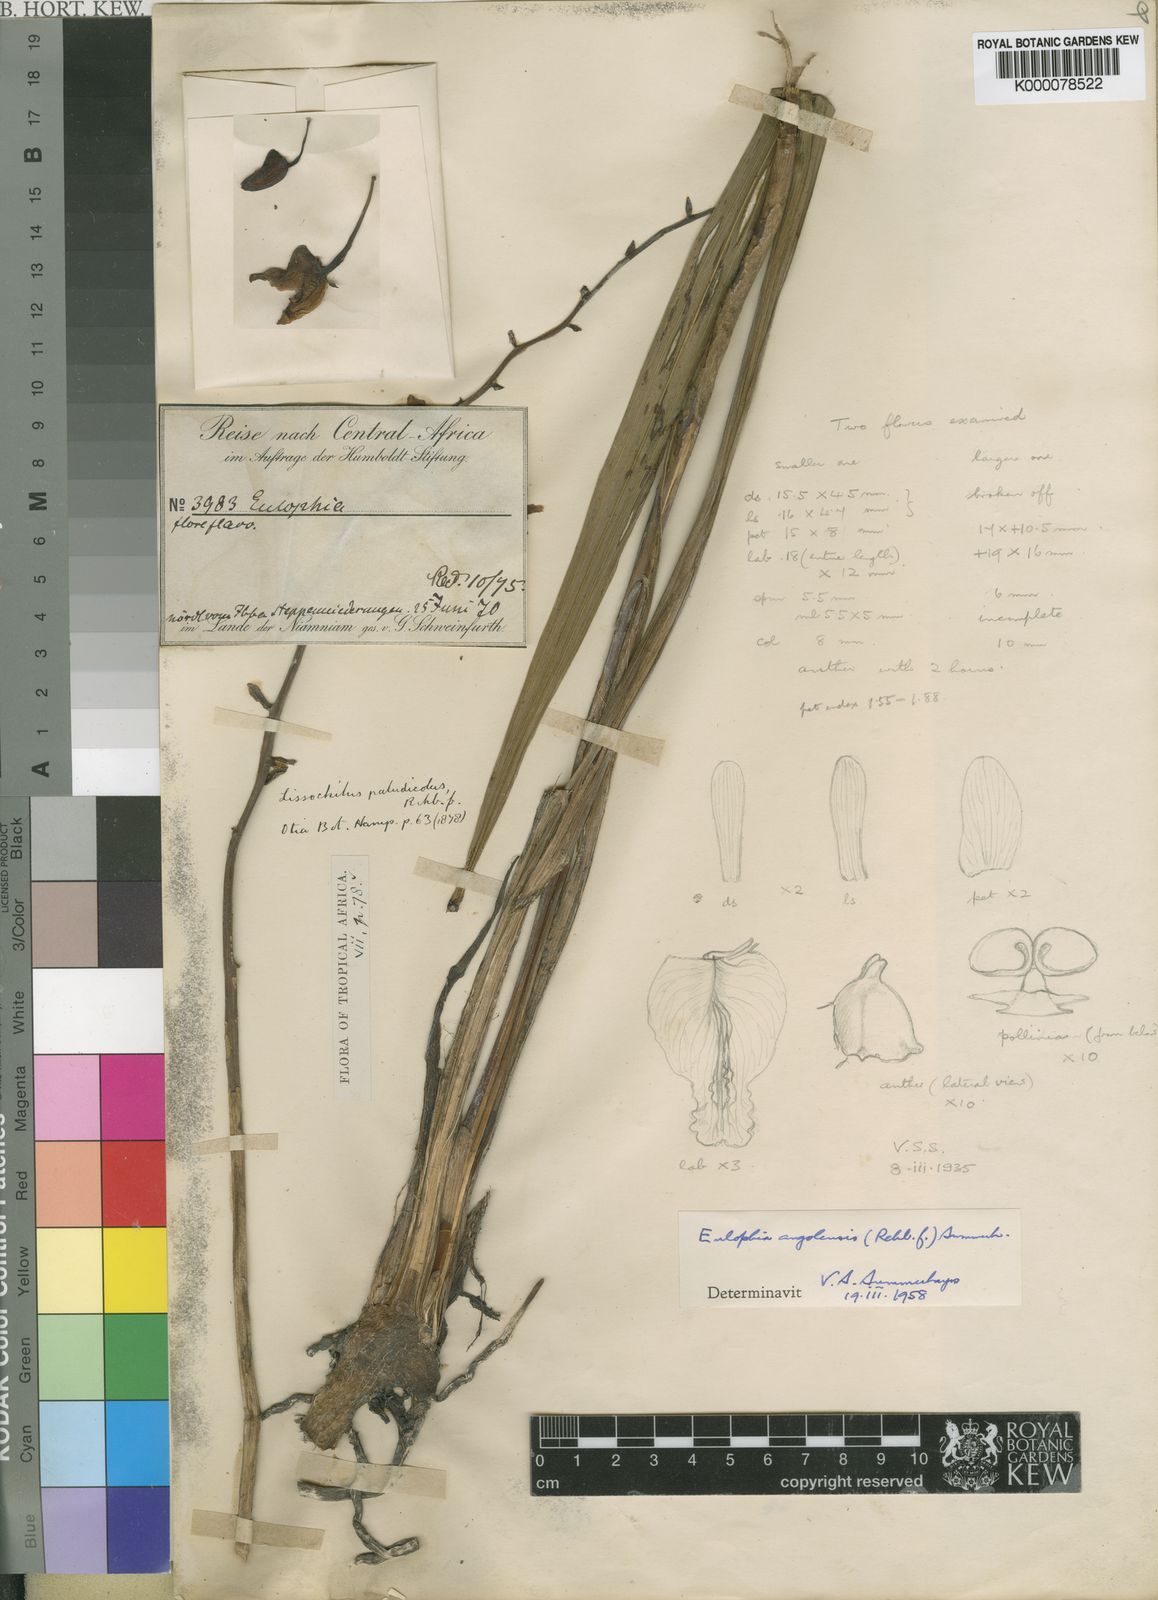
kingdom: Plantae
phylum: Tracheophyta
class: Liliopsida
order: Asparagales
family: Orchidaceae
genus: Eulophia
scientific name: Eulophia angolensis
